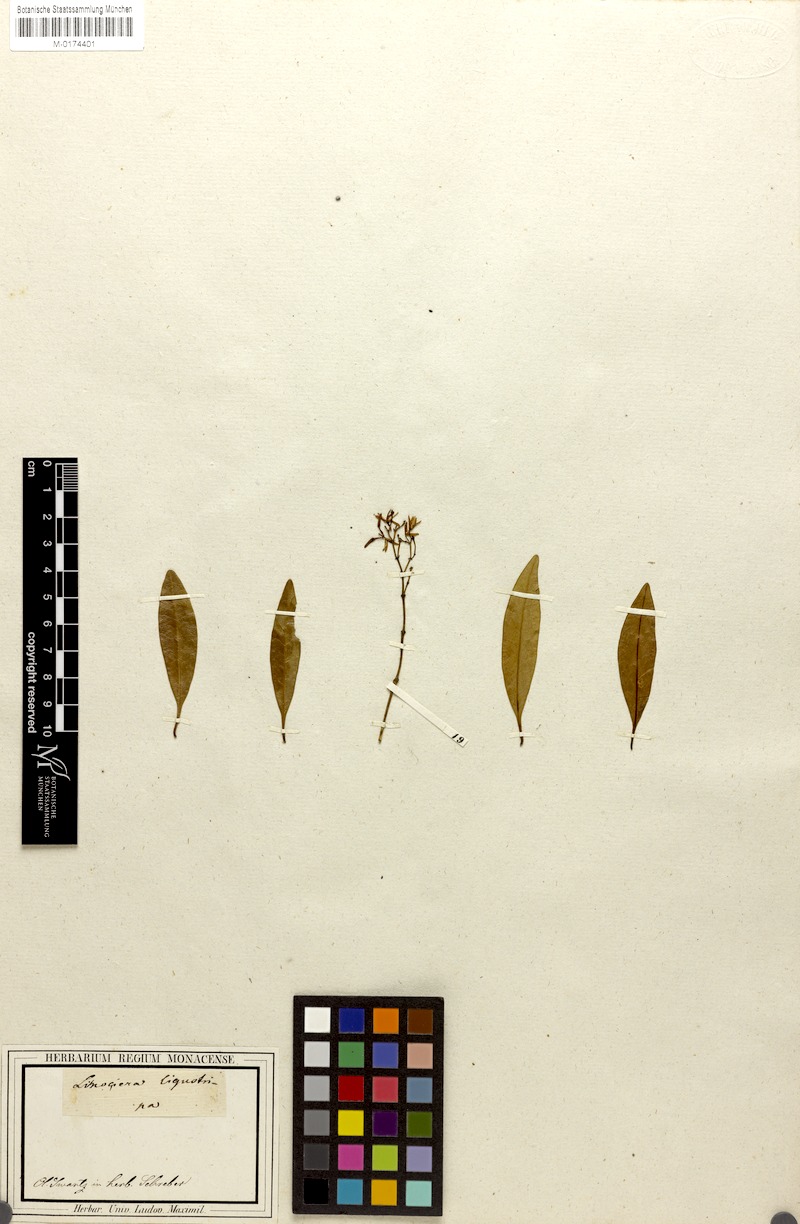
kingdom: Plantae
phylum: Tracheophyta
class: Magnoliopsida
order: Lamiales
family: Oleaceae
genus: Chionanthus
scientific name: Chionanthus ligustrinus
